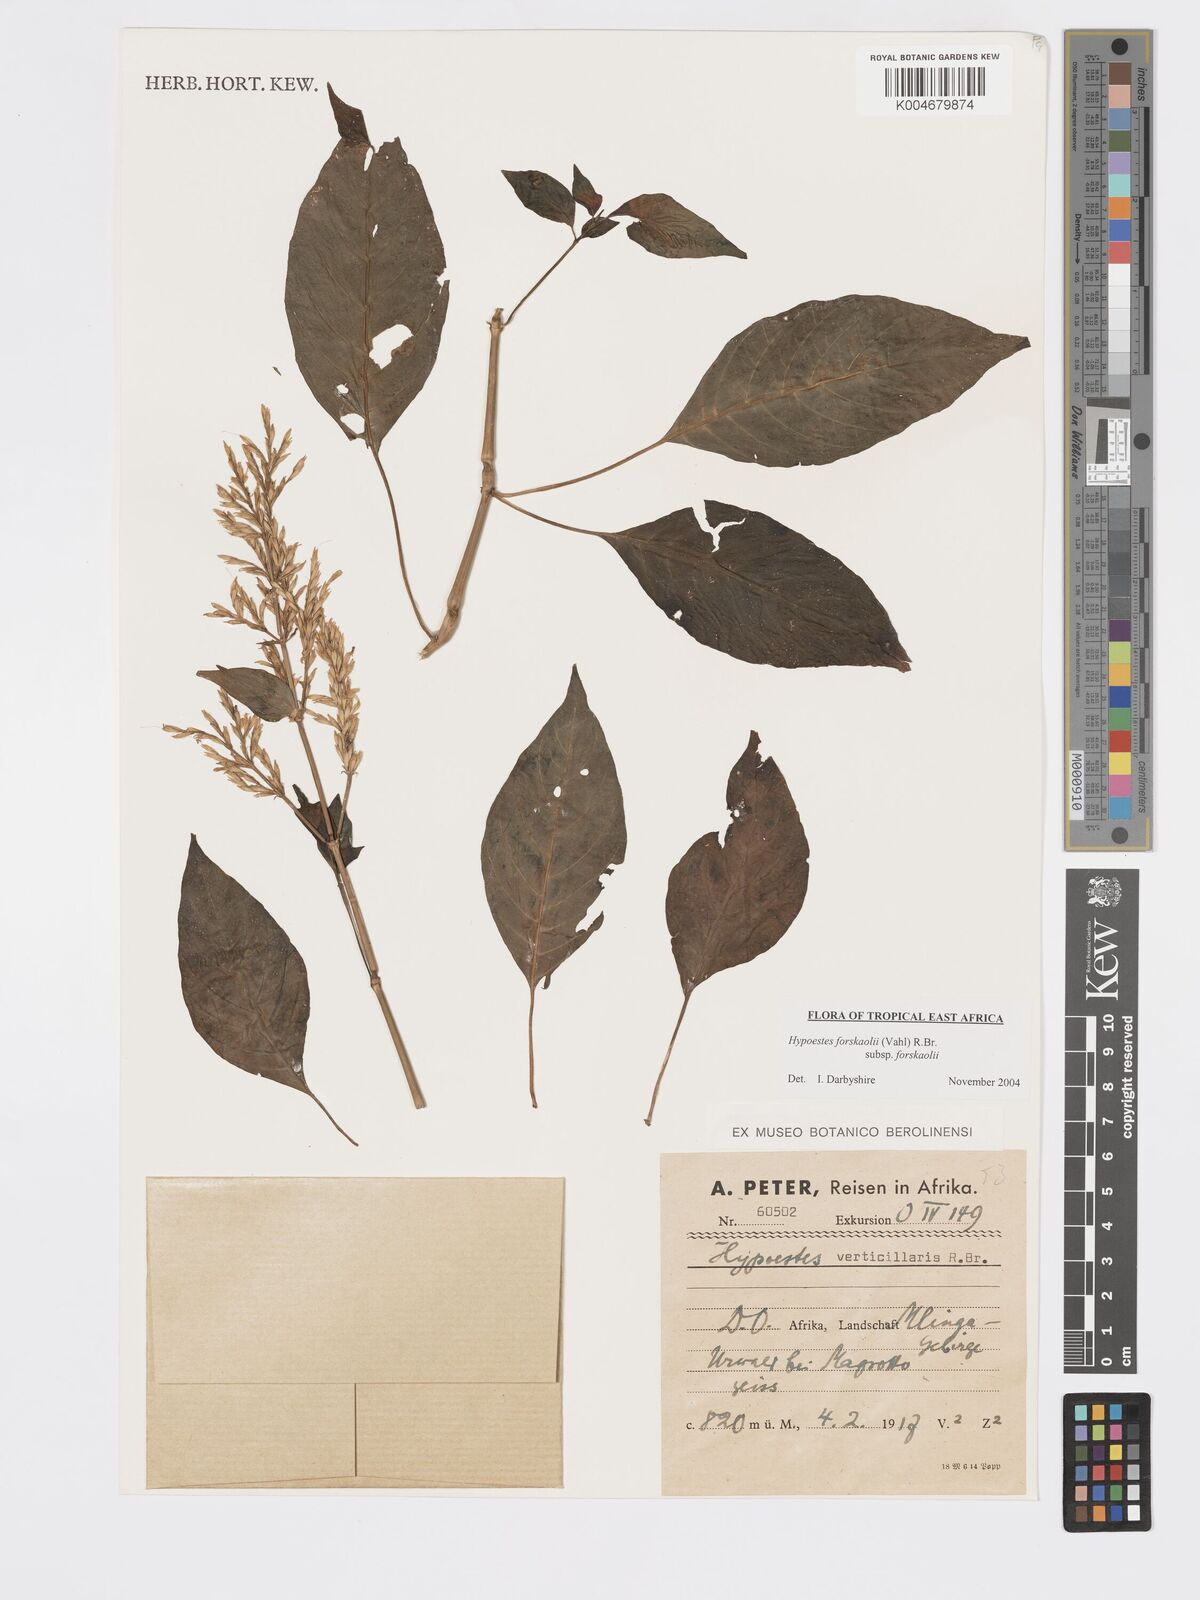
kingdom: Plantae
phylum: Tracheophyta
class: Magnoliopsida
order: Lamiales
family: Acanthaceae
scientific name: Acanthaceae
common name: Acanthaceae
